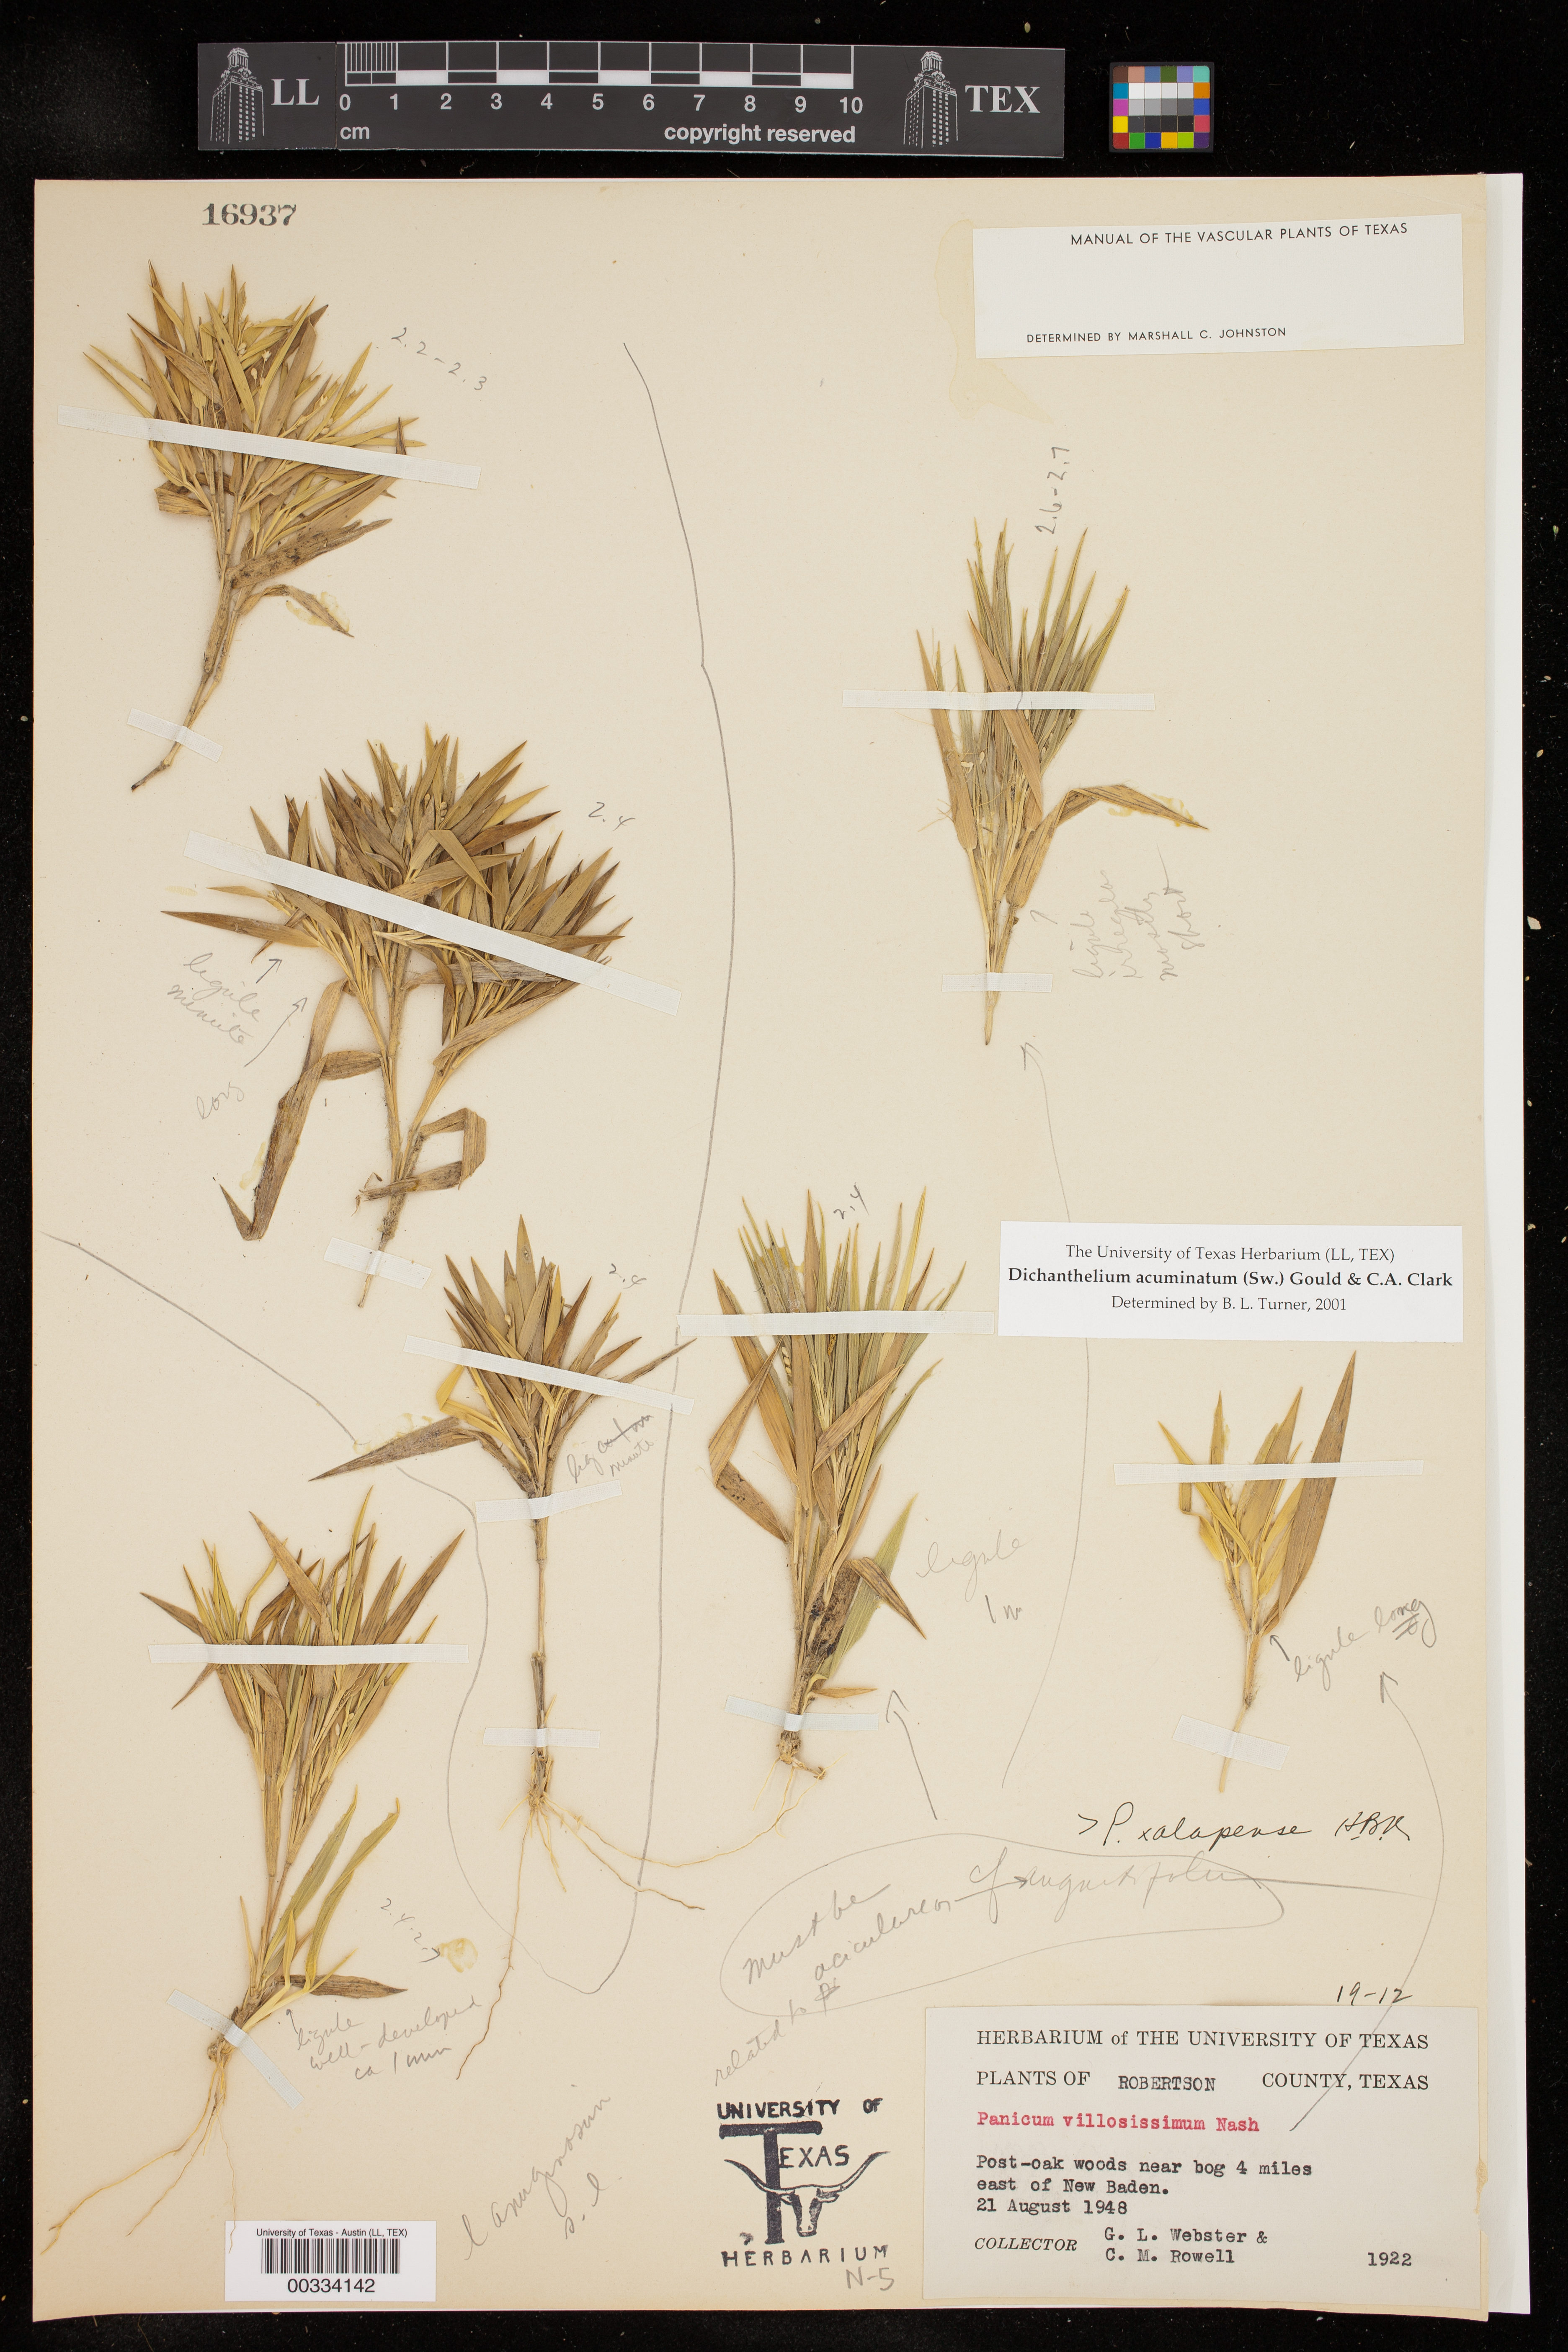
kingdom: Plantae
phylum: Tracheophyta
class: Liliopsida
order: Poales
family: Poaceae
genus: Dichanthelium
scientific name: Dichanthelium acuminatum
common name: Hairy panic grass
